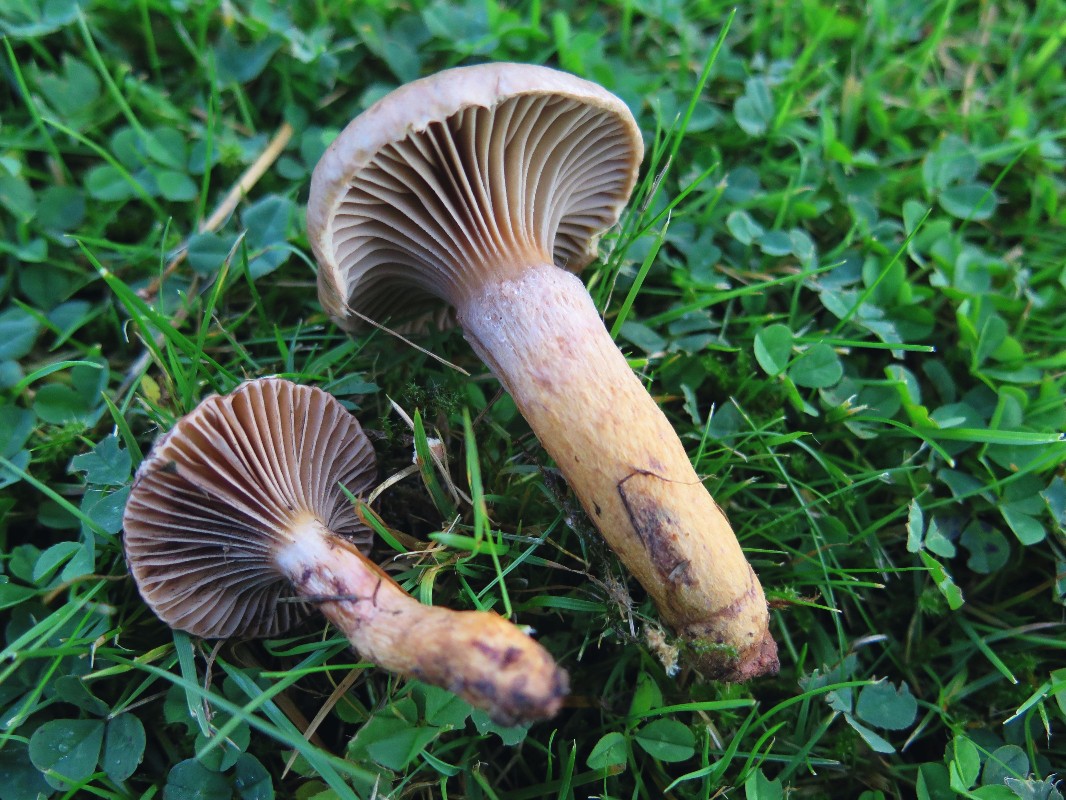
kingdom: Fungi
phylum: Basidiomycota
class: Agaricomycetes
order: Boletales
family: Gomphidiaceae
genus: Chroogomphus
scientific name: Chroogomphus rutilus
